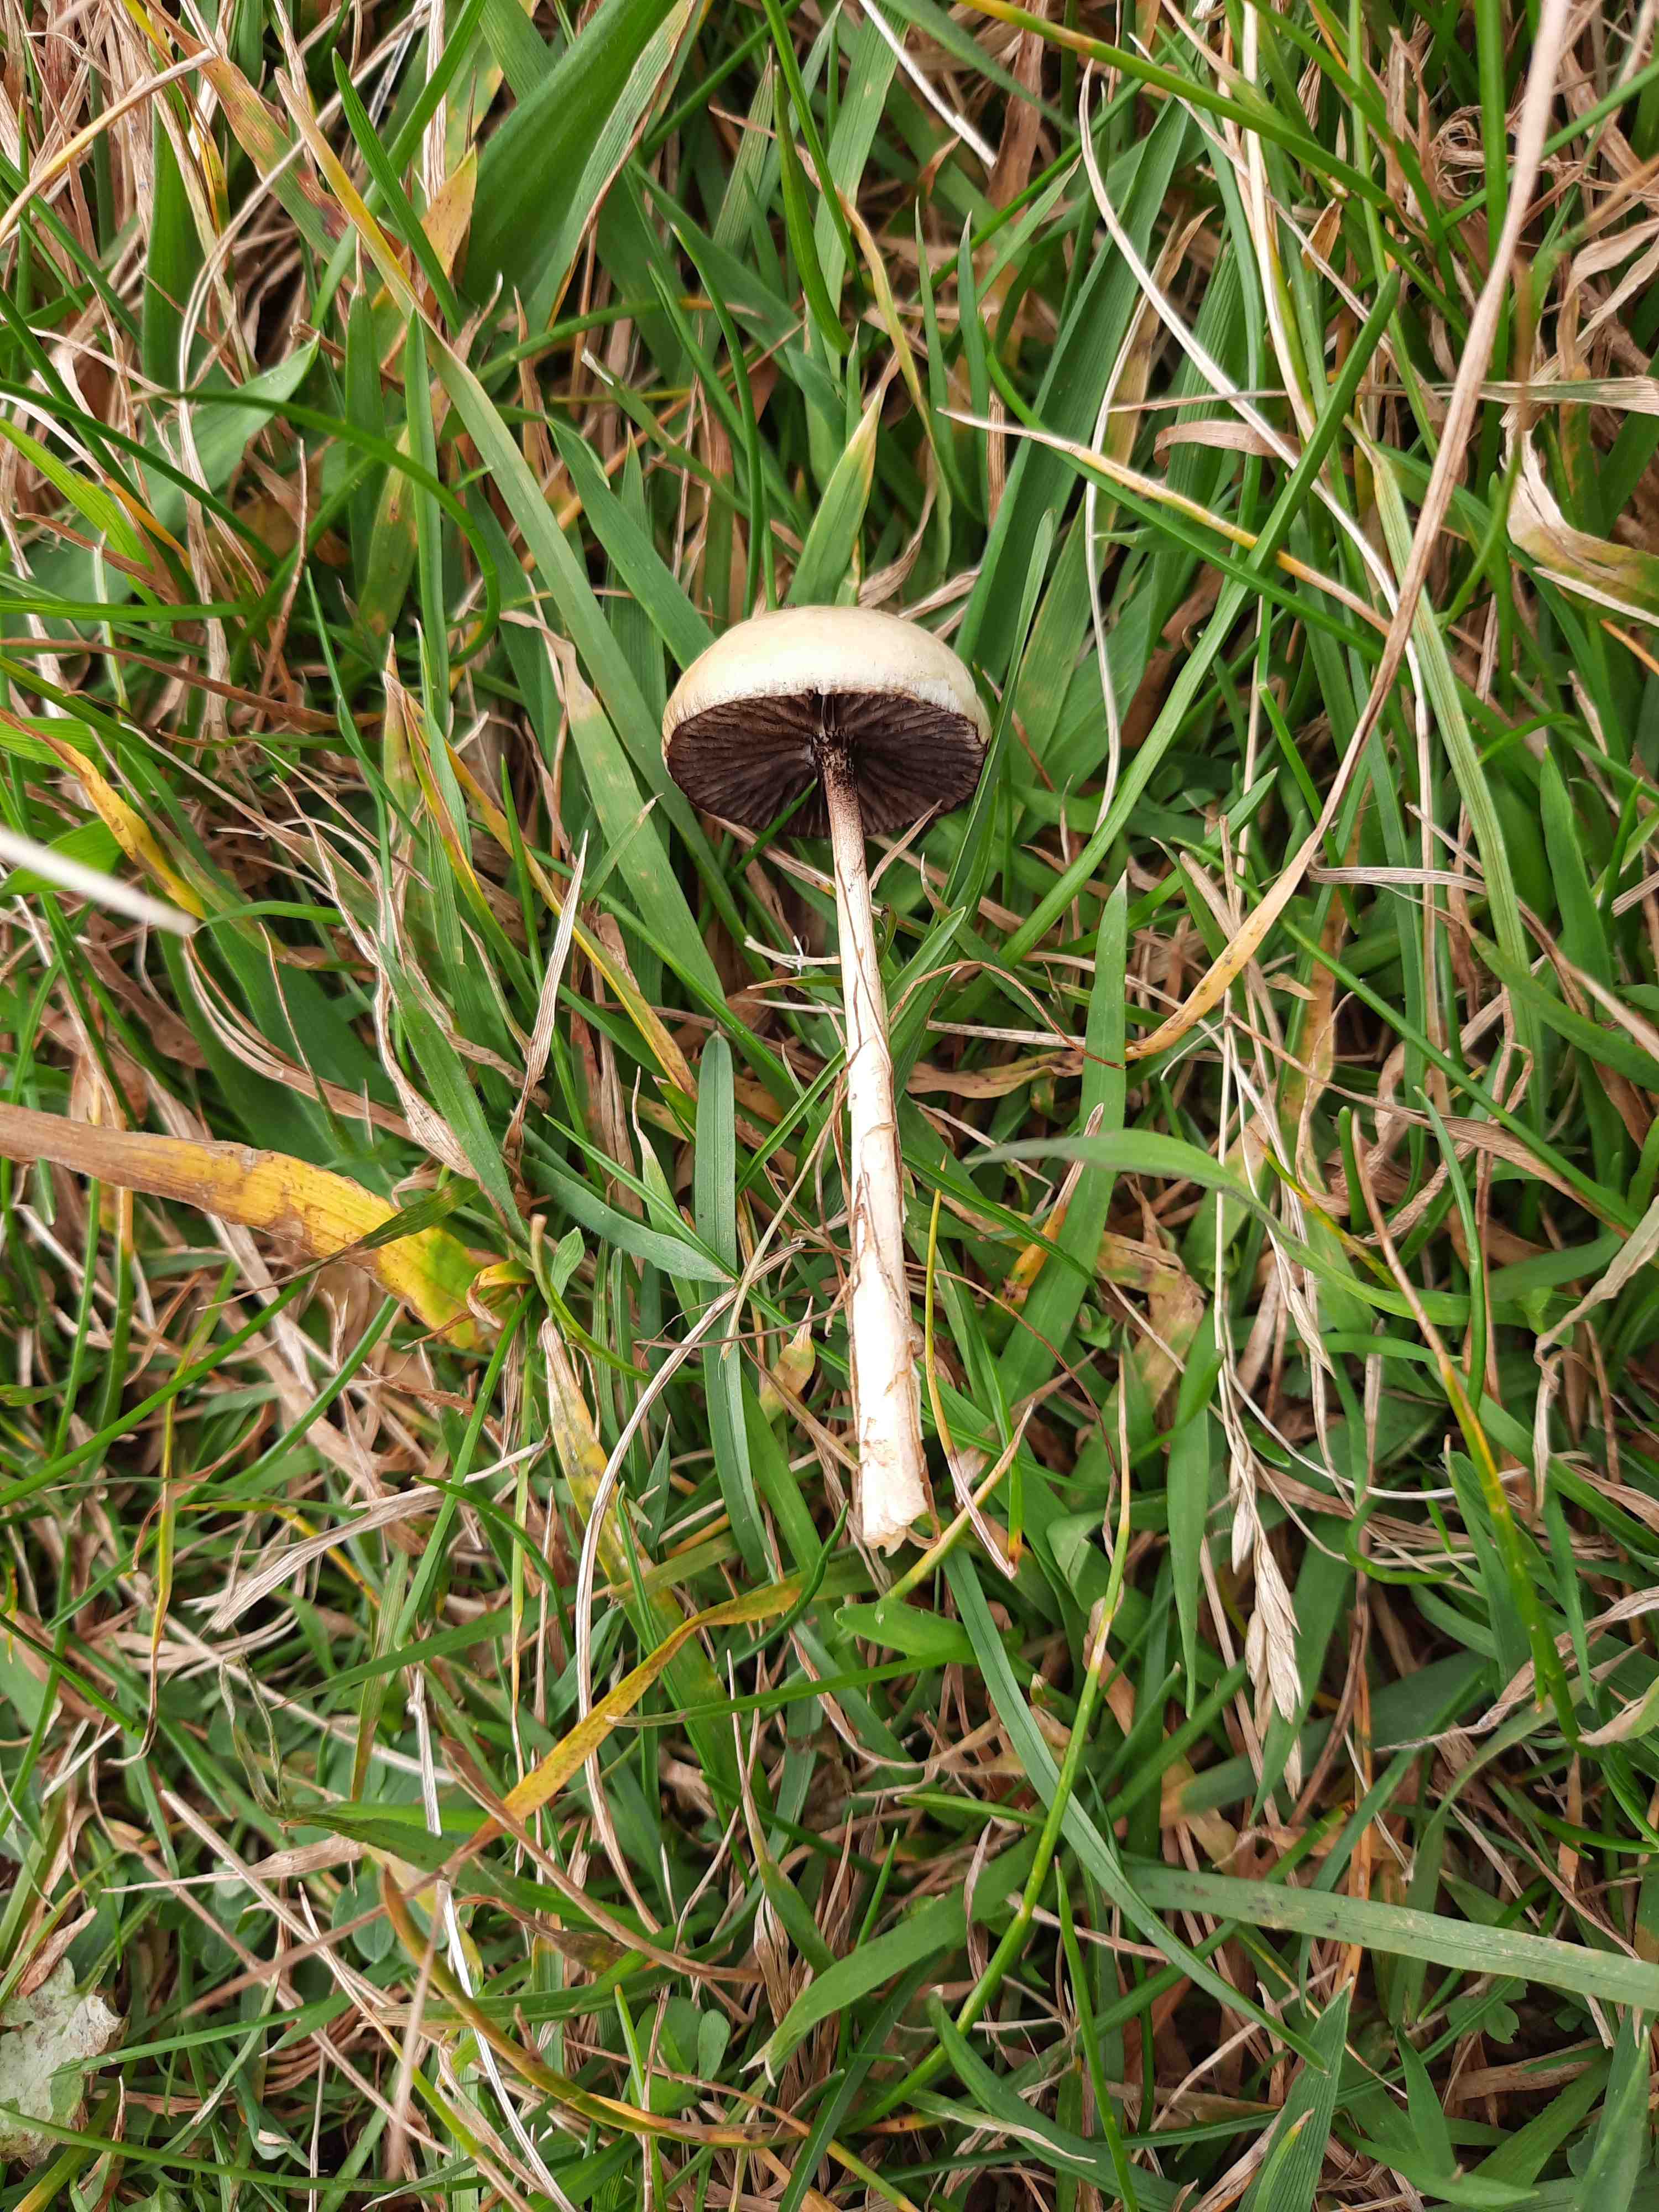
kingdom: Fungi
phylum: Basidiomycota
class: Agaricomycetes
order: Agaricales
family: Strophariaceae
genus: Protostropharia
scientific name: Protostropharia semiglobata
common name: halvkugleformet bredblad
